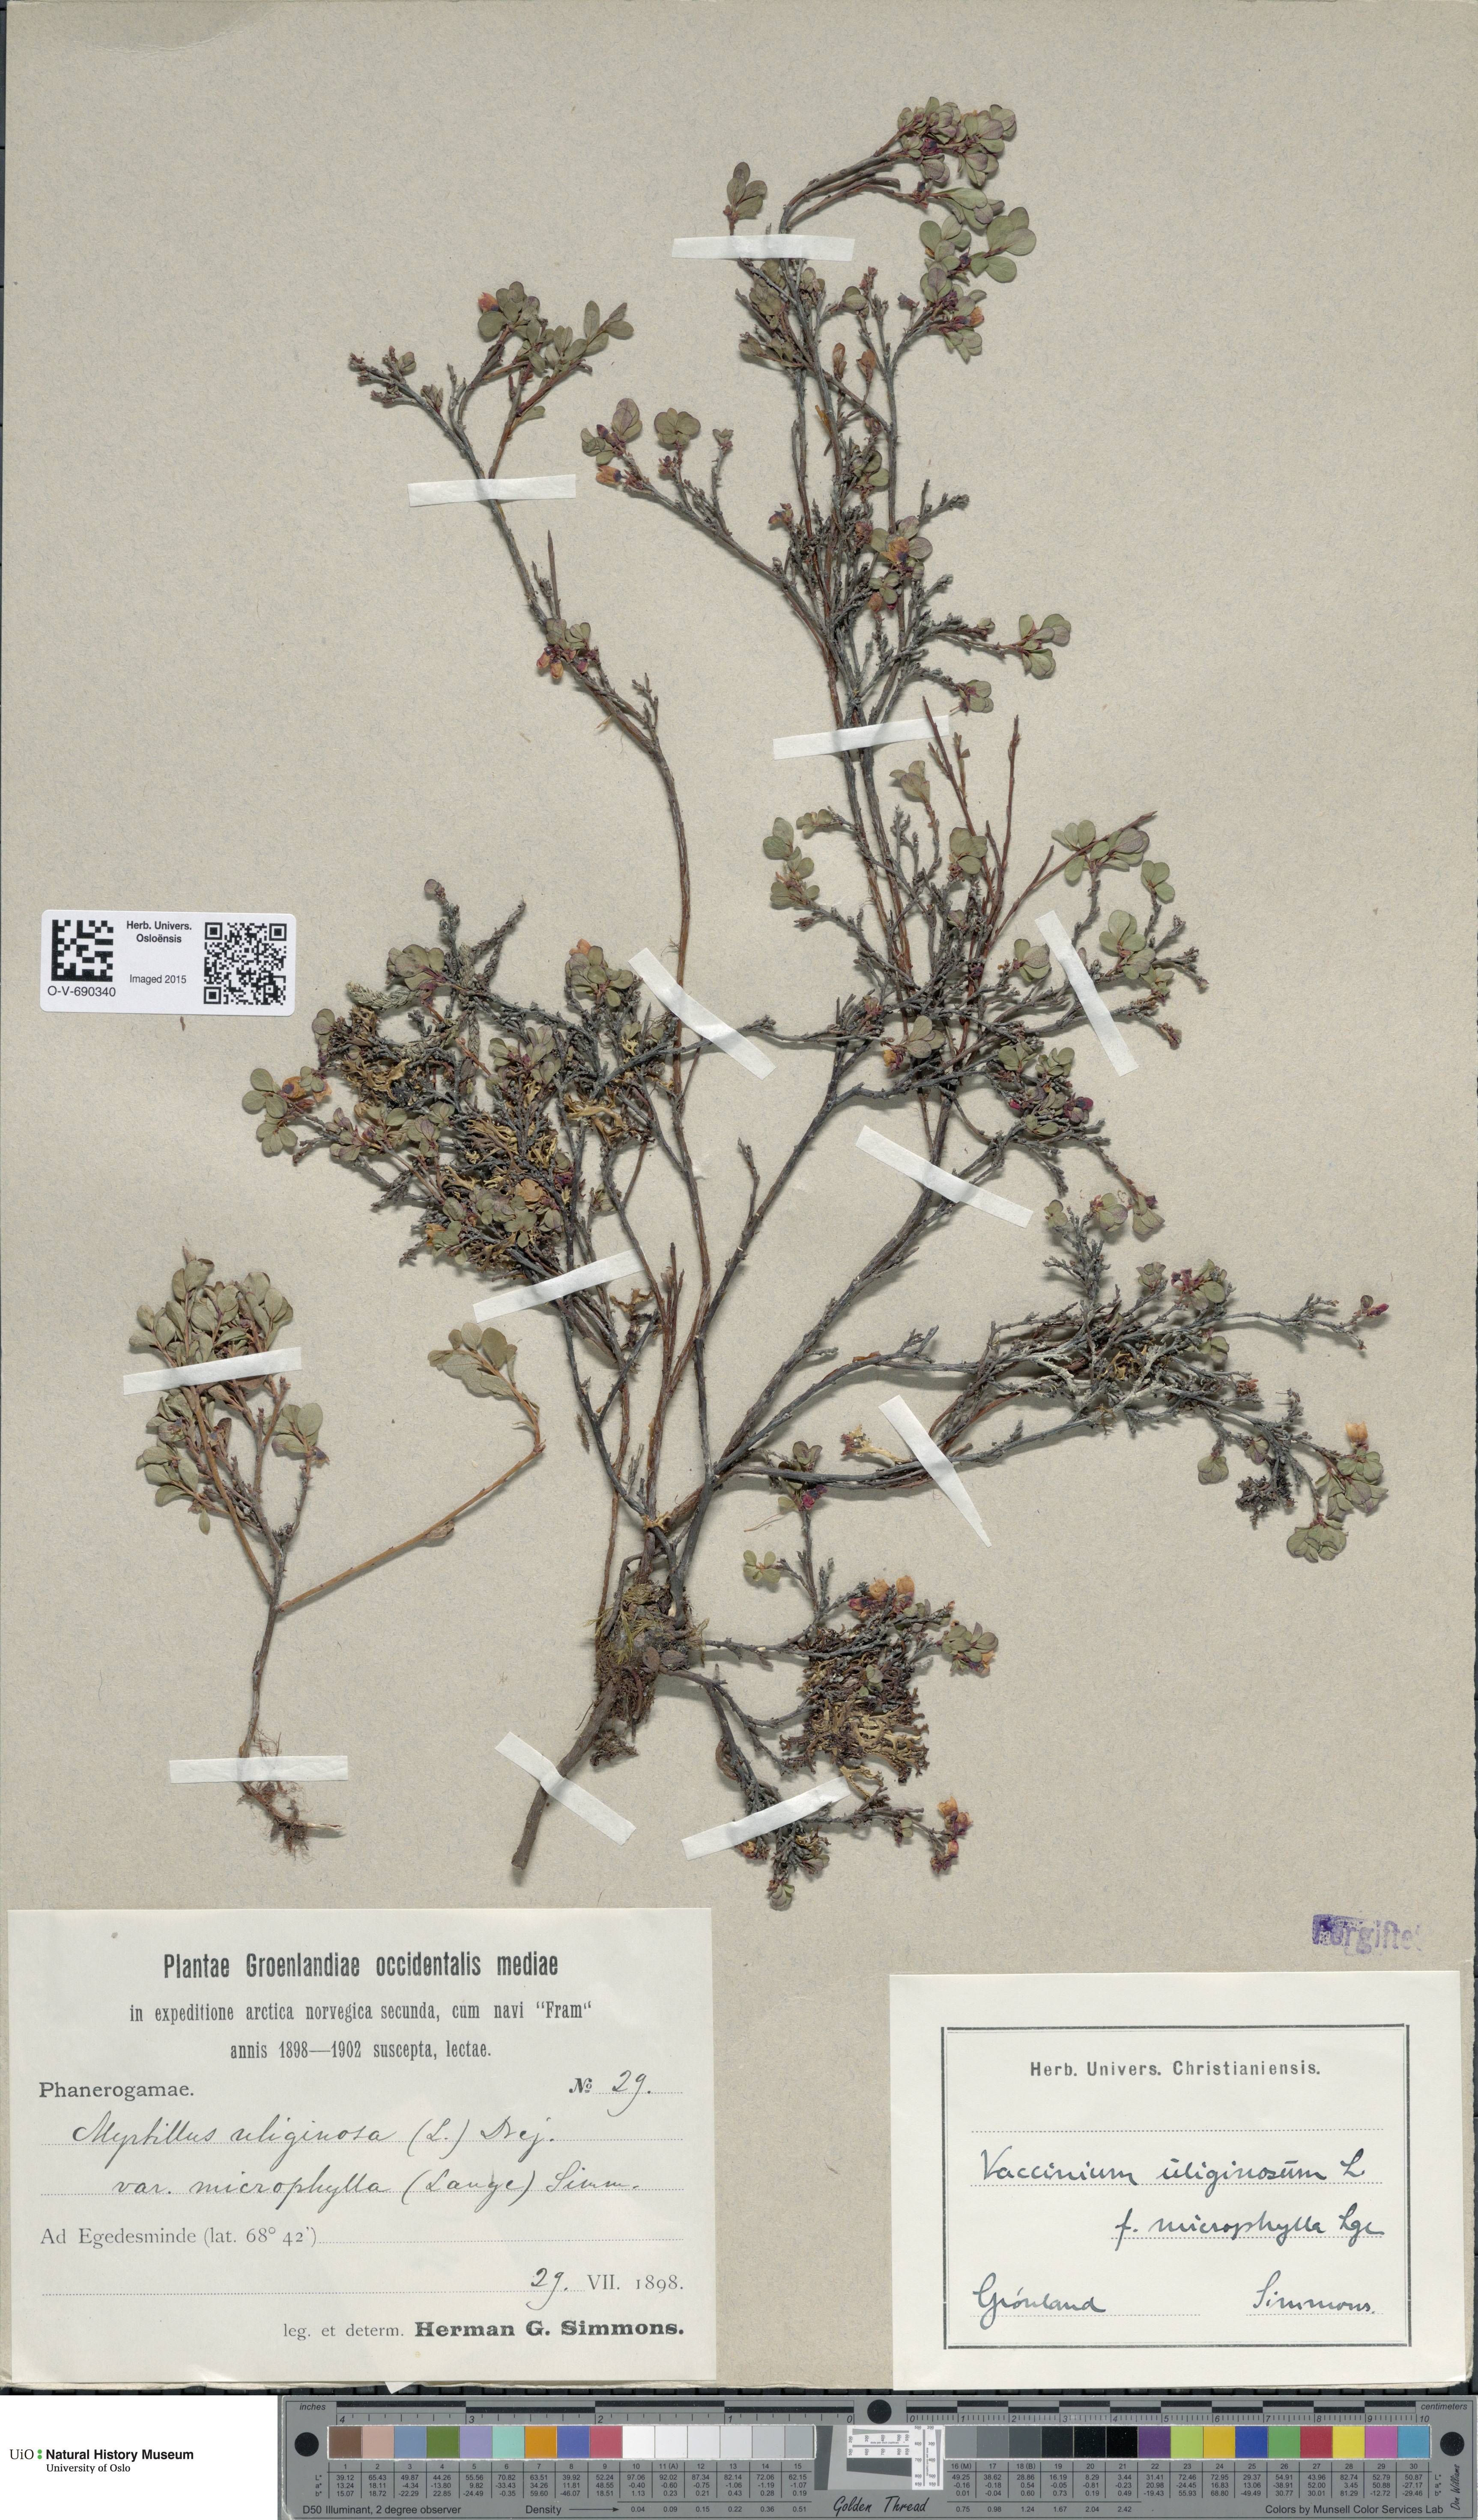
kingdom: Plantae
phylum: Tracheophyta
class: Magnoliopsida
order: Ericales
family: Ericaceae
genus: Vaccinium
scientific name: Vaccinium uliginosum
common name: Bog bilberry
